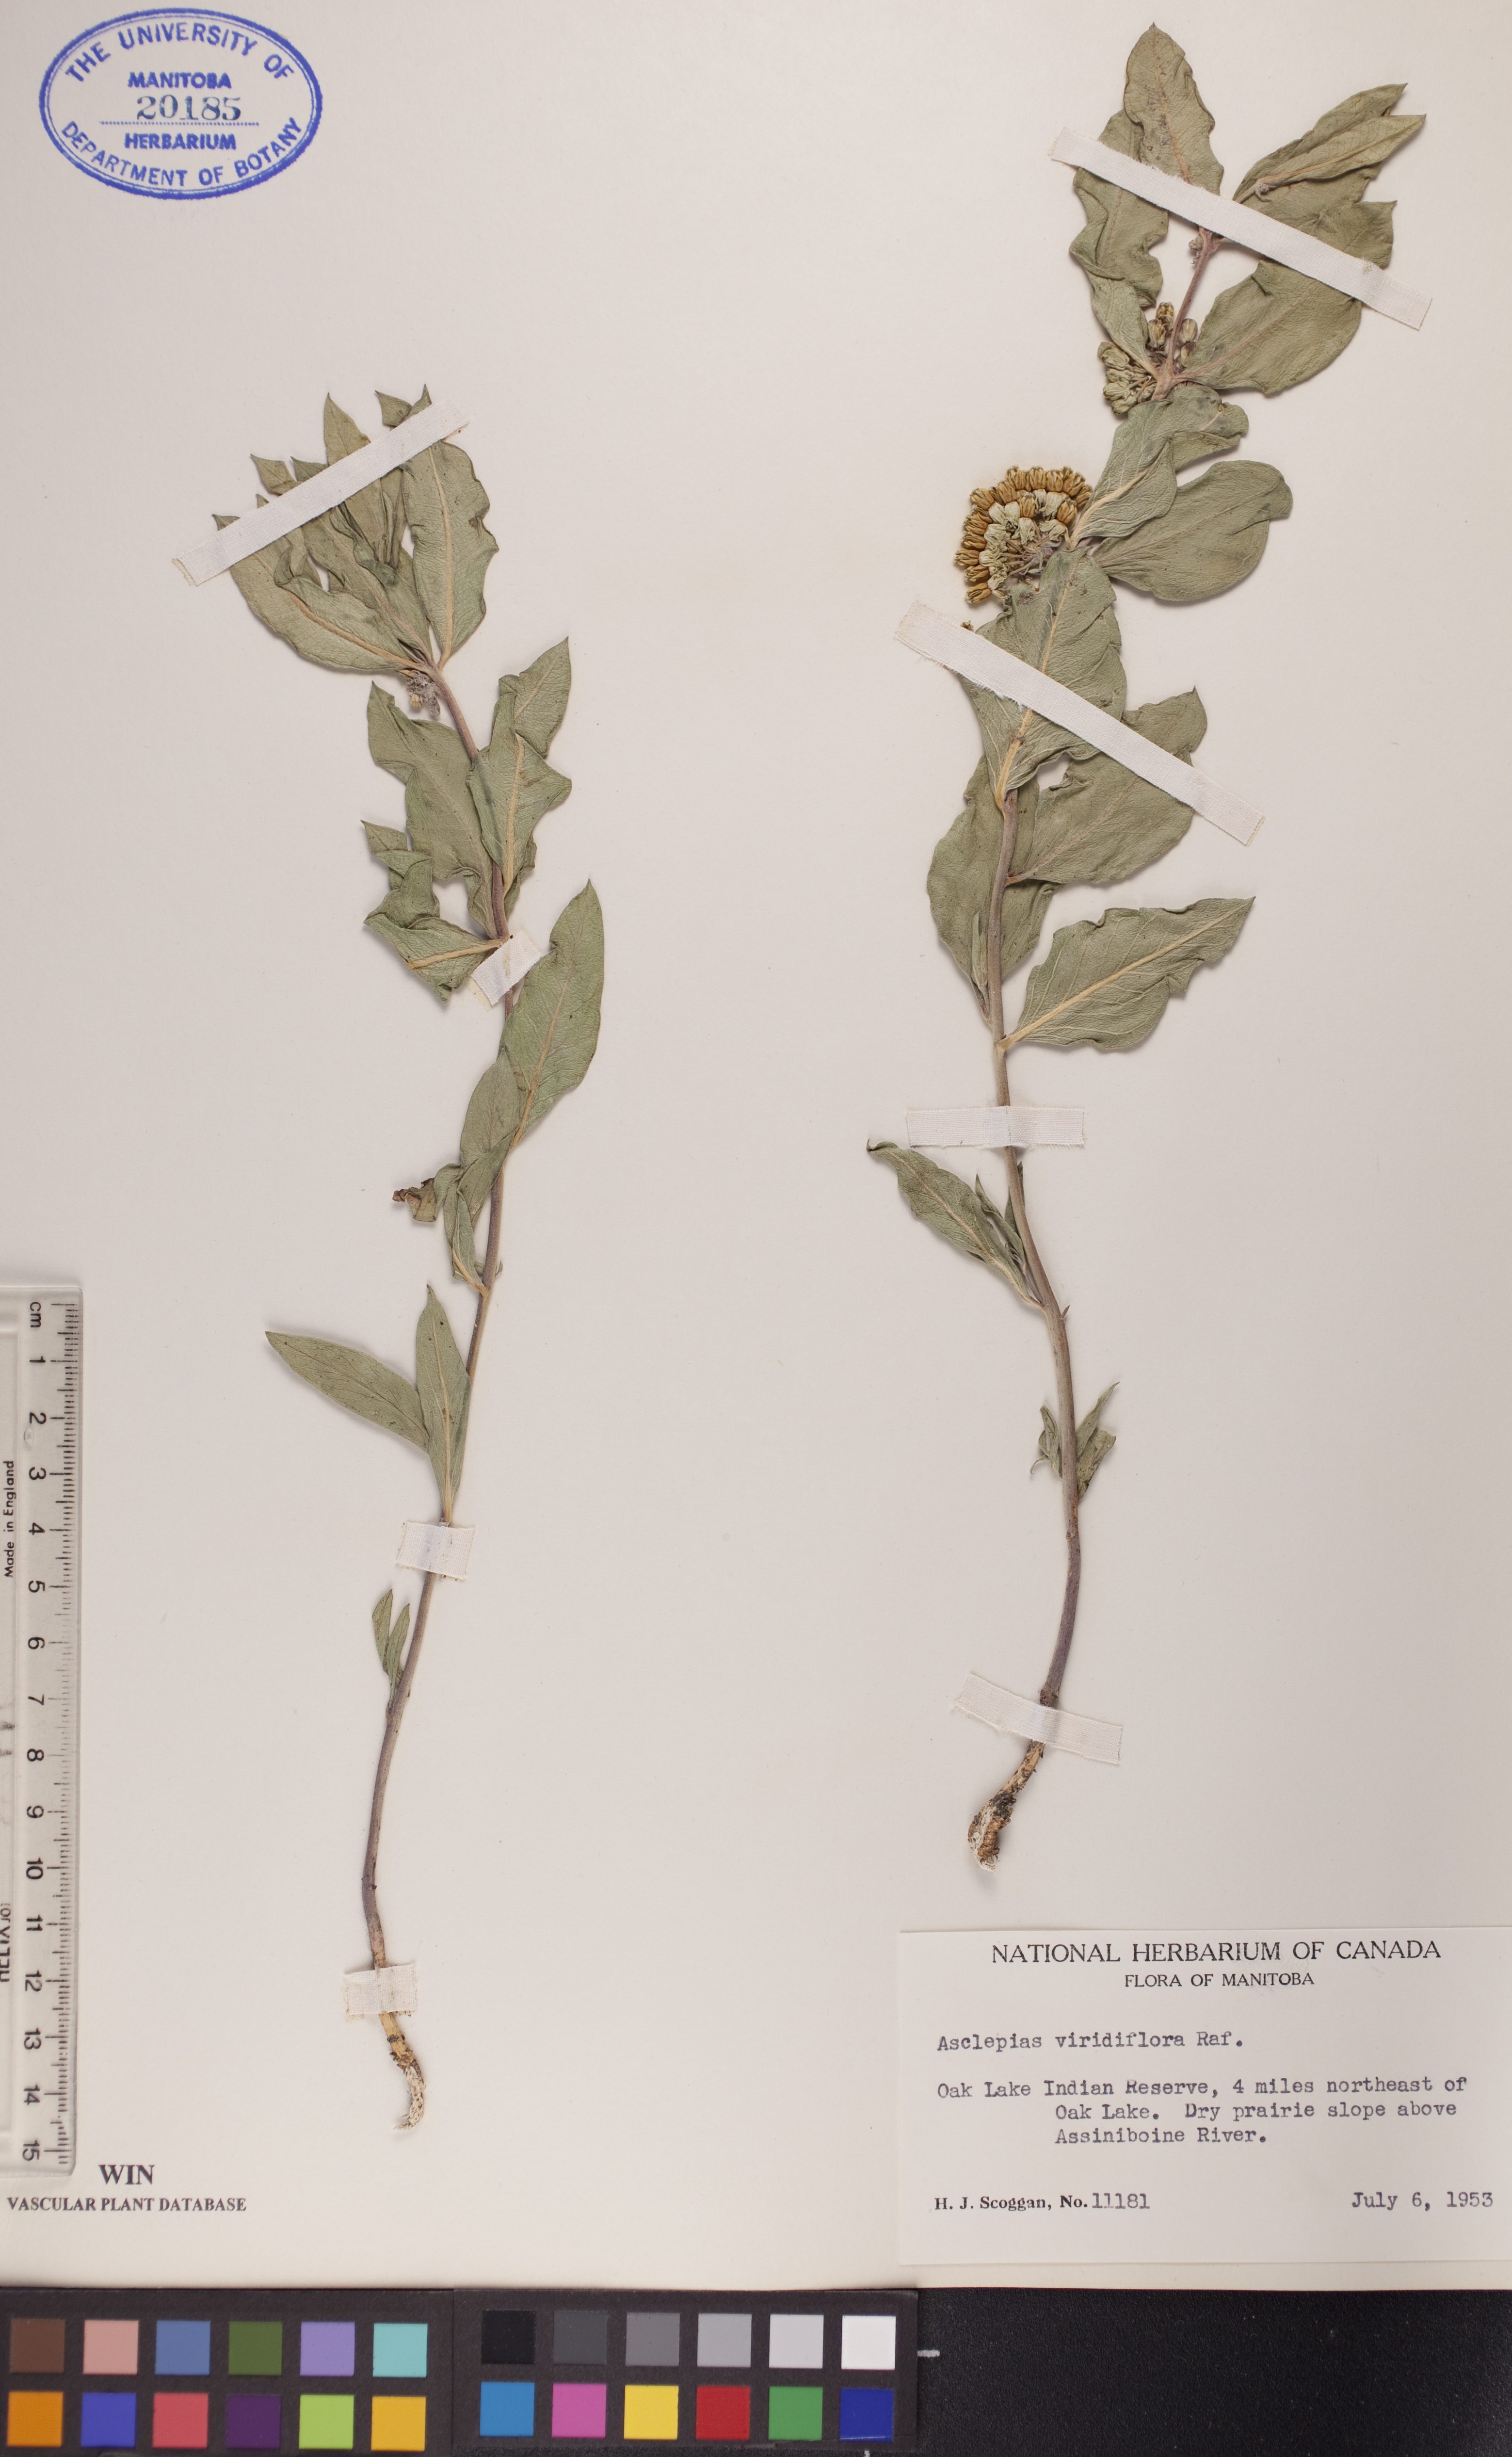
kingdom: Plantae
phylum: Tracheophyta
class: Magnoliopsida
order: Gentianales
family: Apocynaceae
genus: Asclepias
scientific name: Asclepias viridiflora
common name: Green comet milkweed
